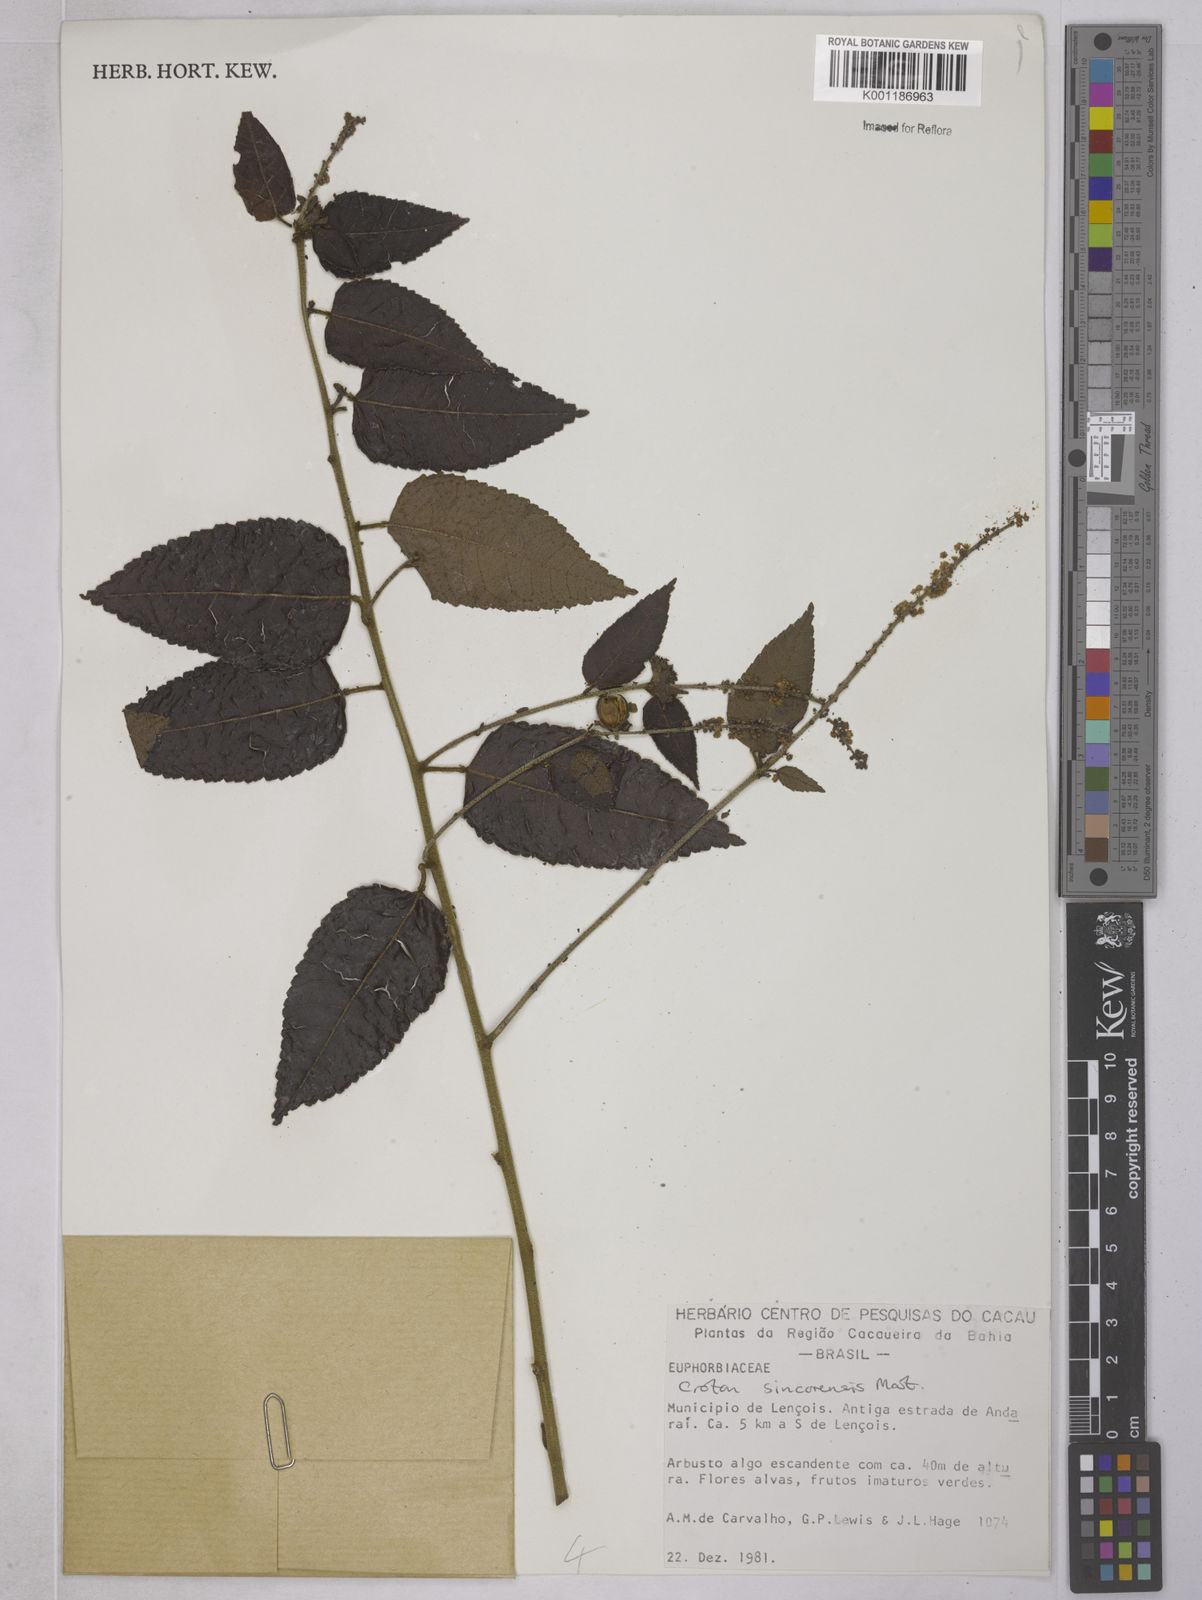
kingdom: Plantae
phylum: Tracheophyta
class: Magnoliopsida
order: Malpighiales
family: Euphorbiaceae
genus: Croton
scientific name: Croton sincorensis
